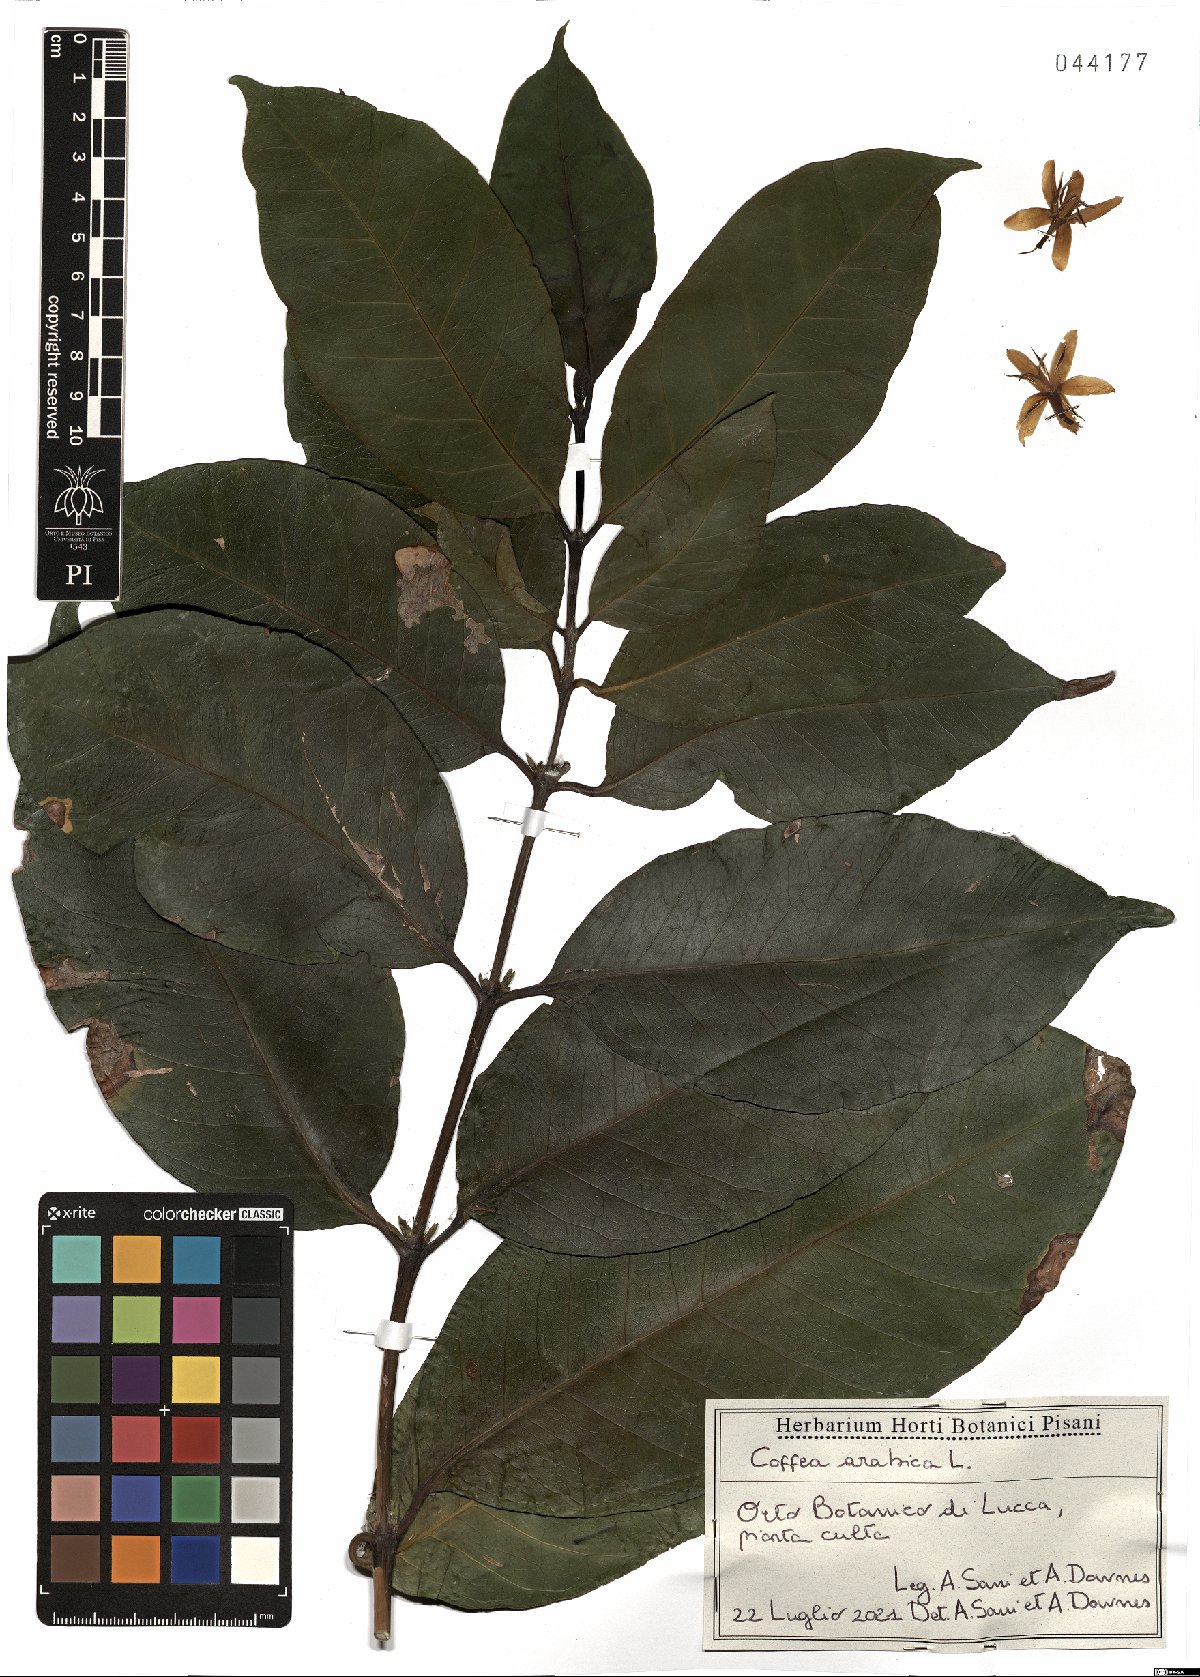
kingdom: Plantae
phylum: Tracheophyta
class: Magnoliopsida
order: Gentianales
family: Rubiaceae
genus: Coffea
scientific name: Coffea arabica
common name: Coffee
